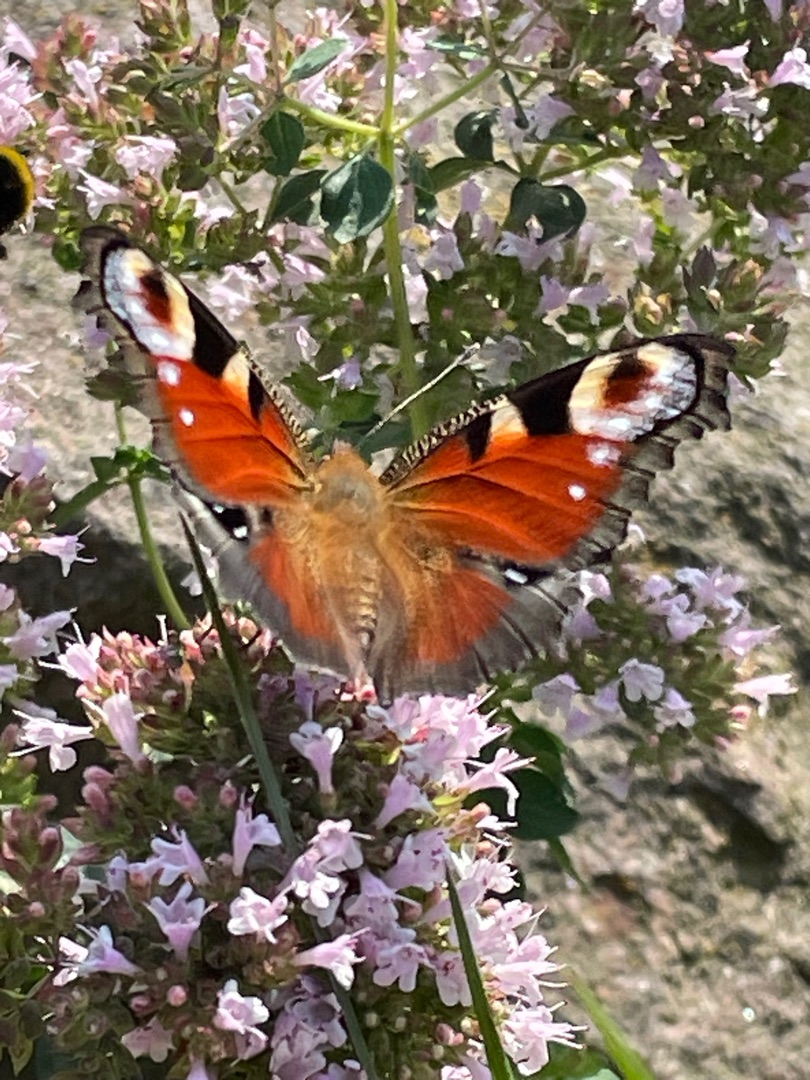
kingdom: Animalia
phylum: Arthropoda
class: Insecta
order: Lepidoptera
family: Nymphalidae
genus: Aglais
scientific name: Aglais io
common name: Dagpåfugleøje
